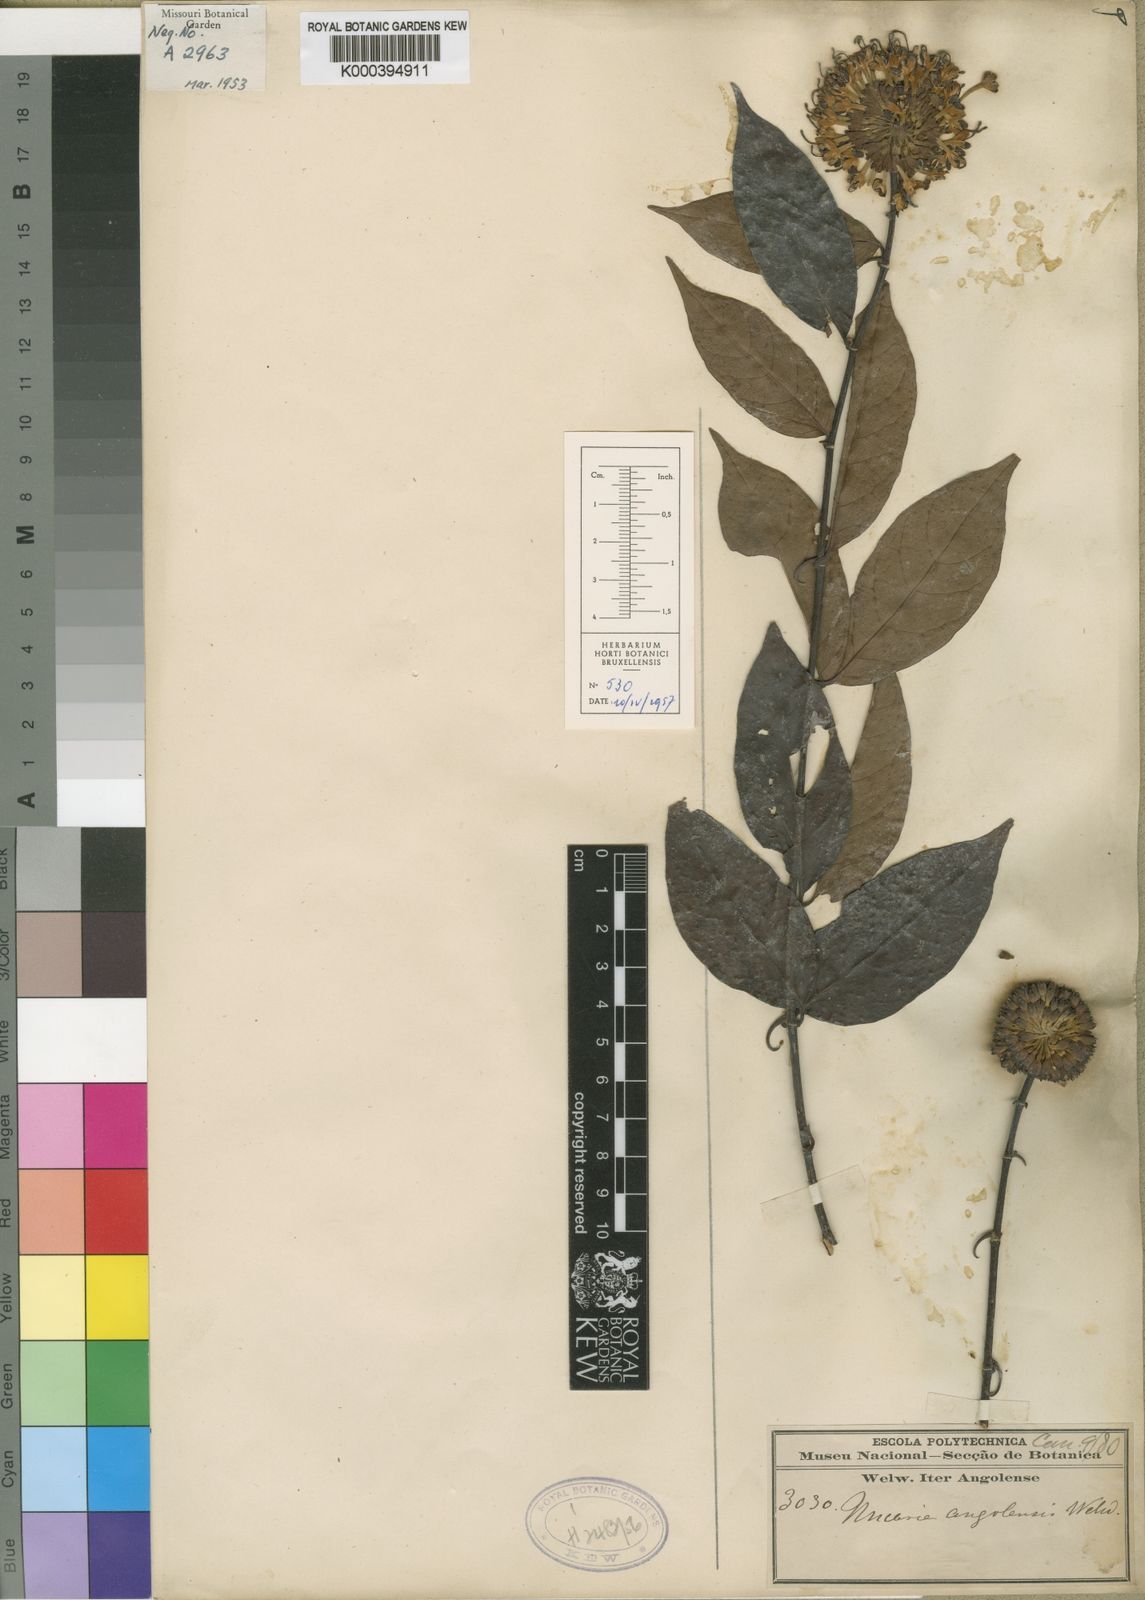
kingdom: Plantae
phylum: Tracheophyta
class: Magnoliopsida
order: Gentianales
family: Rubiaceae
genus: Uncaria
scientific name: Uncaria angolensis
